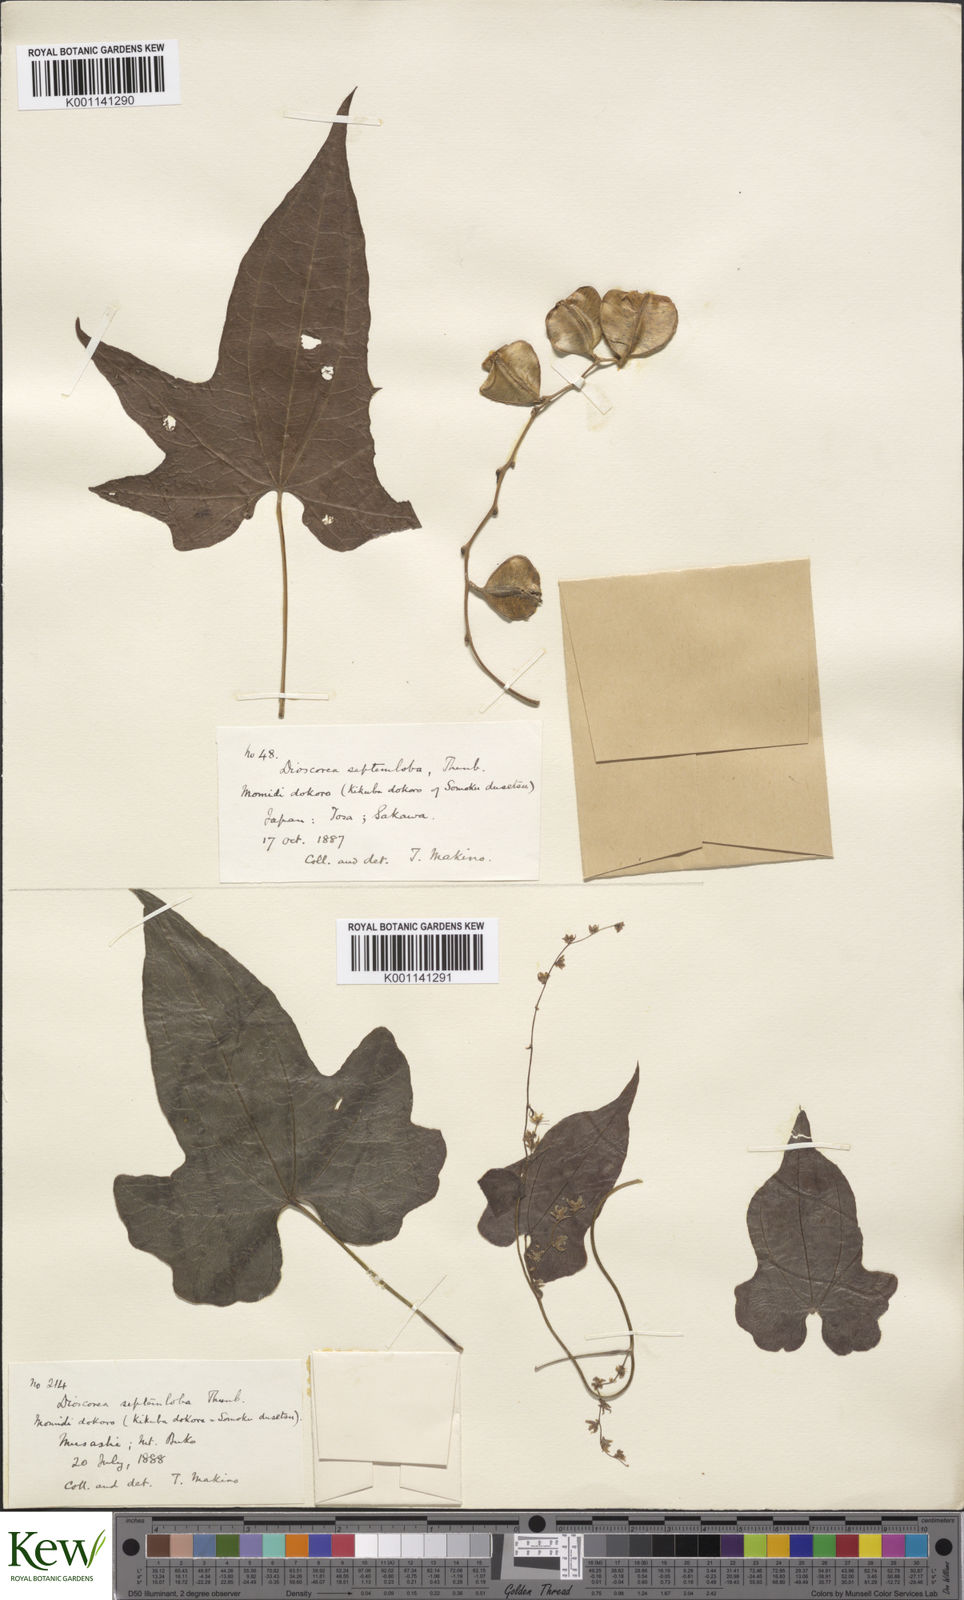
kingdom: Plantae
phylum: Tracheophyta
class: Liliopsida
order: Dioscoreales
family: Dioscoreaceae
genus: Dioscorea
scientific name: Dioscorea septemloba
